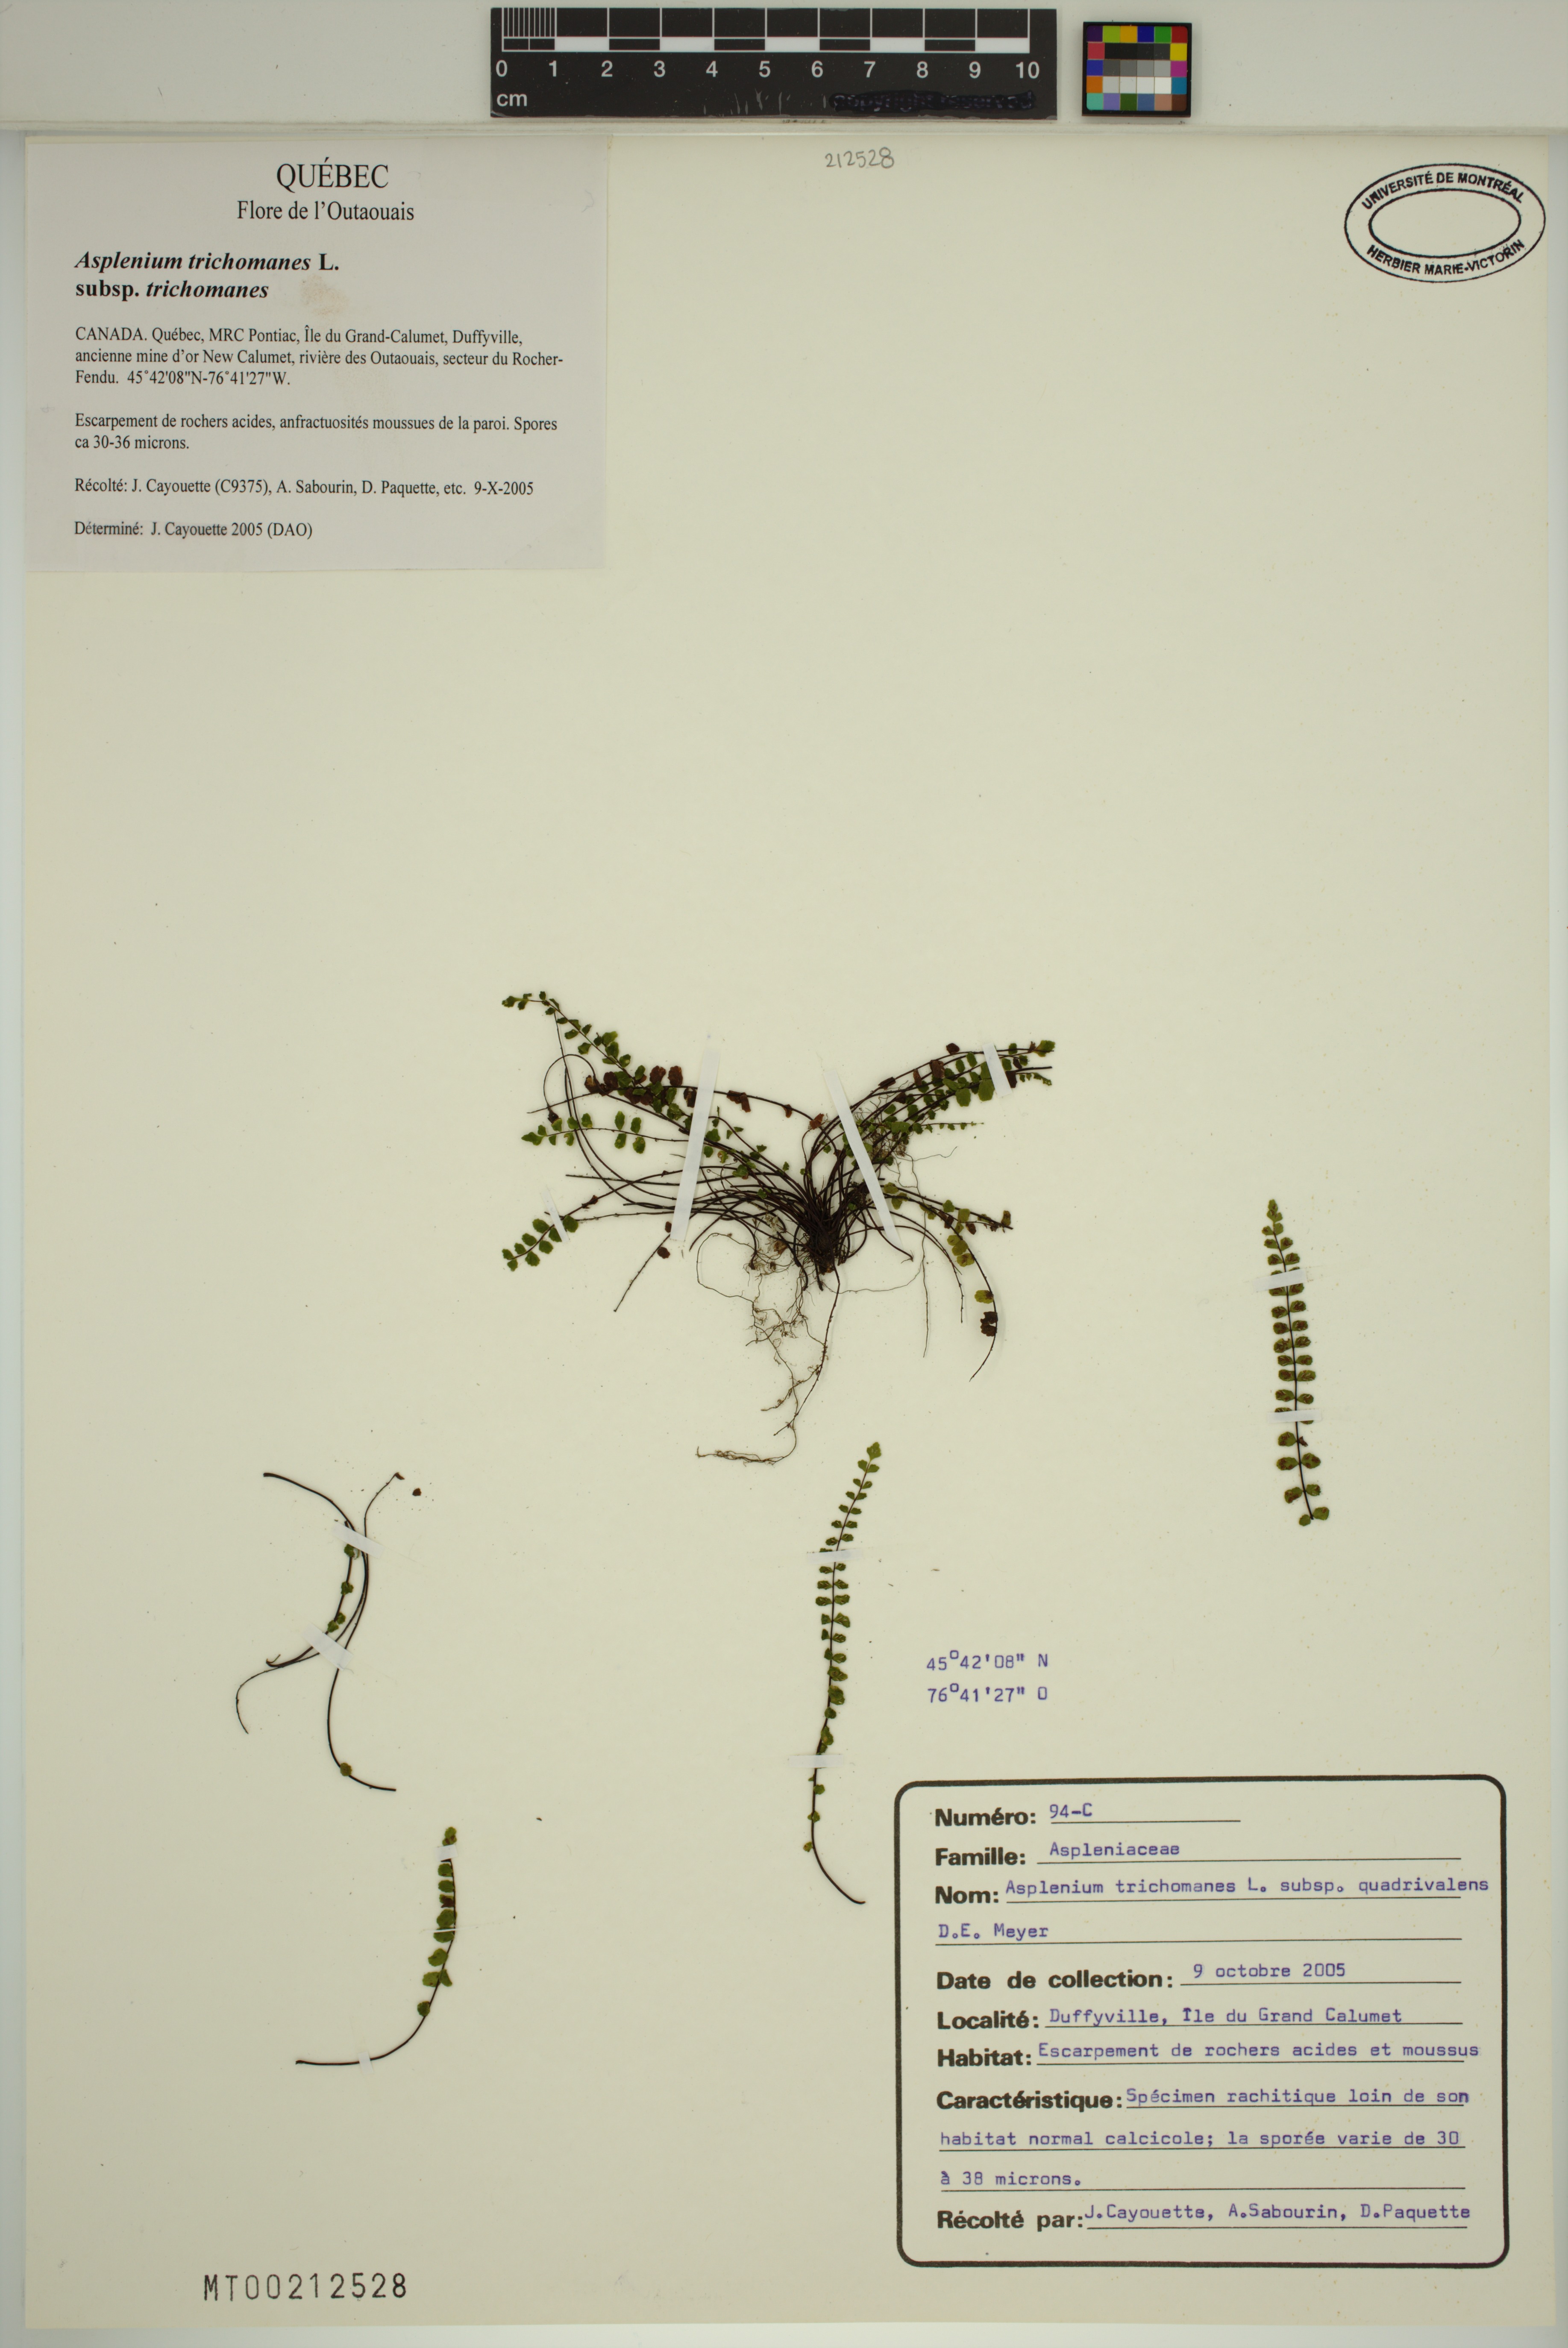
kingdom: Plantae
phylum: Tracheophyta
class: Polypodiopsida
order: Polypodiales
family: Aspleniaceae
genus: Asplenium
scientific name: Asplenium quadrivalens
